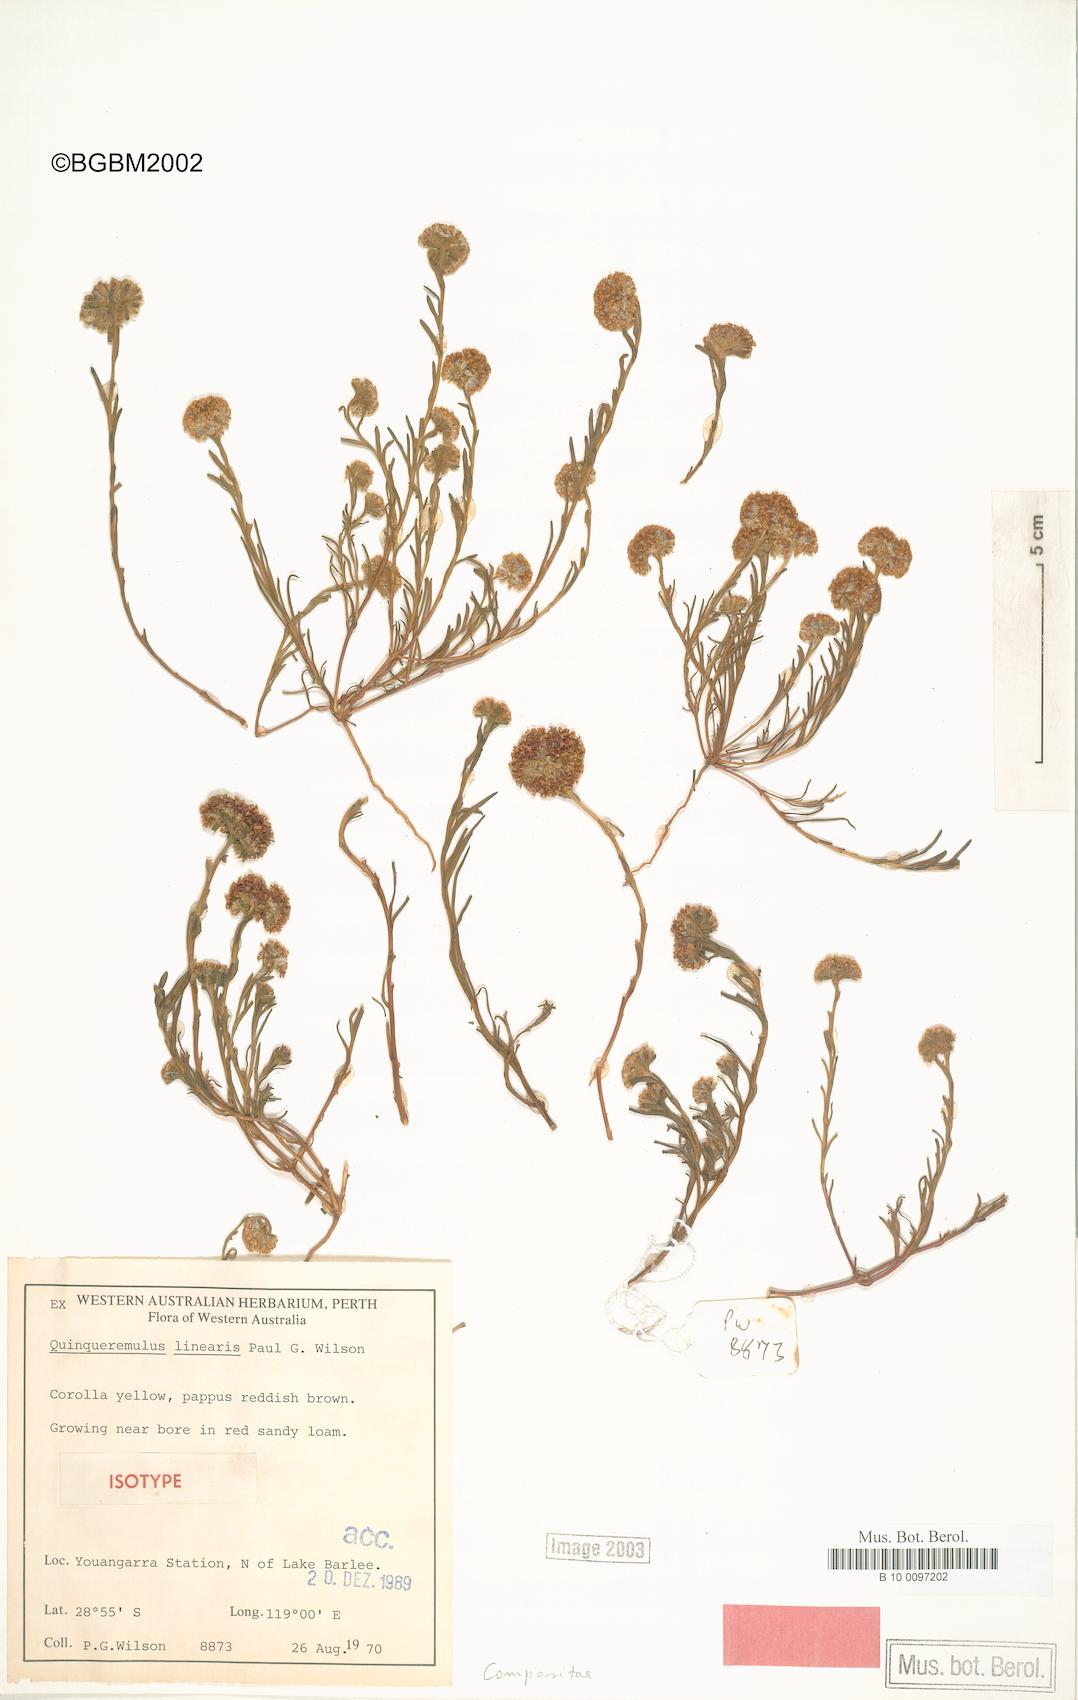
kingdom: Plantae
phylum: Tracheophyta
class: Magnoliopsida
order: Asterales
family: Asteraceae
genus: Quinqueremulus
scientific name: Quinqueremulus linearis
